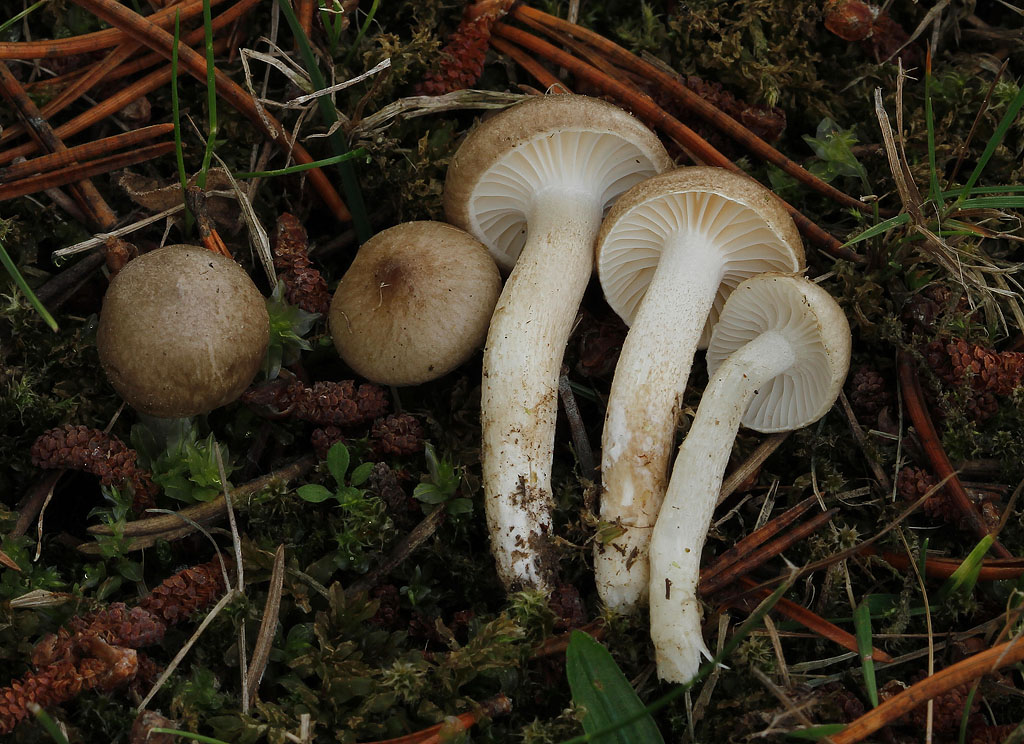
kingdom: Fungi
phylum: Basidiomycota
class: Agaricomycetes
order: Agaricales
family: Hygrophoraceae
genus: Hygrophorus
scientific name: Hygrophorus suaveolens
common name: parfumeret sneglehat
